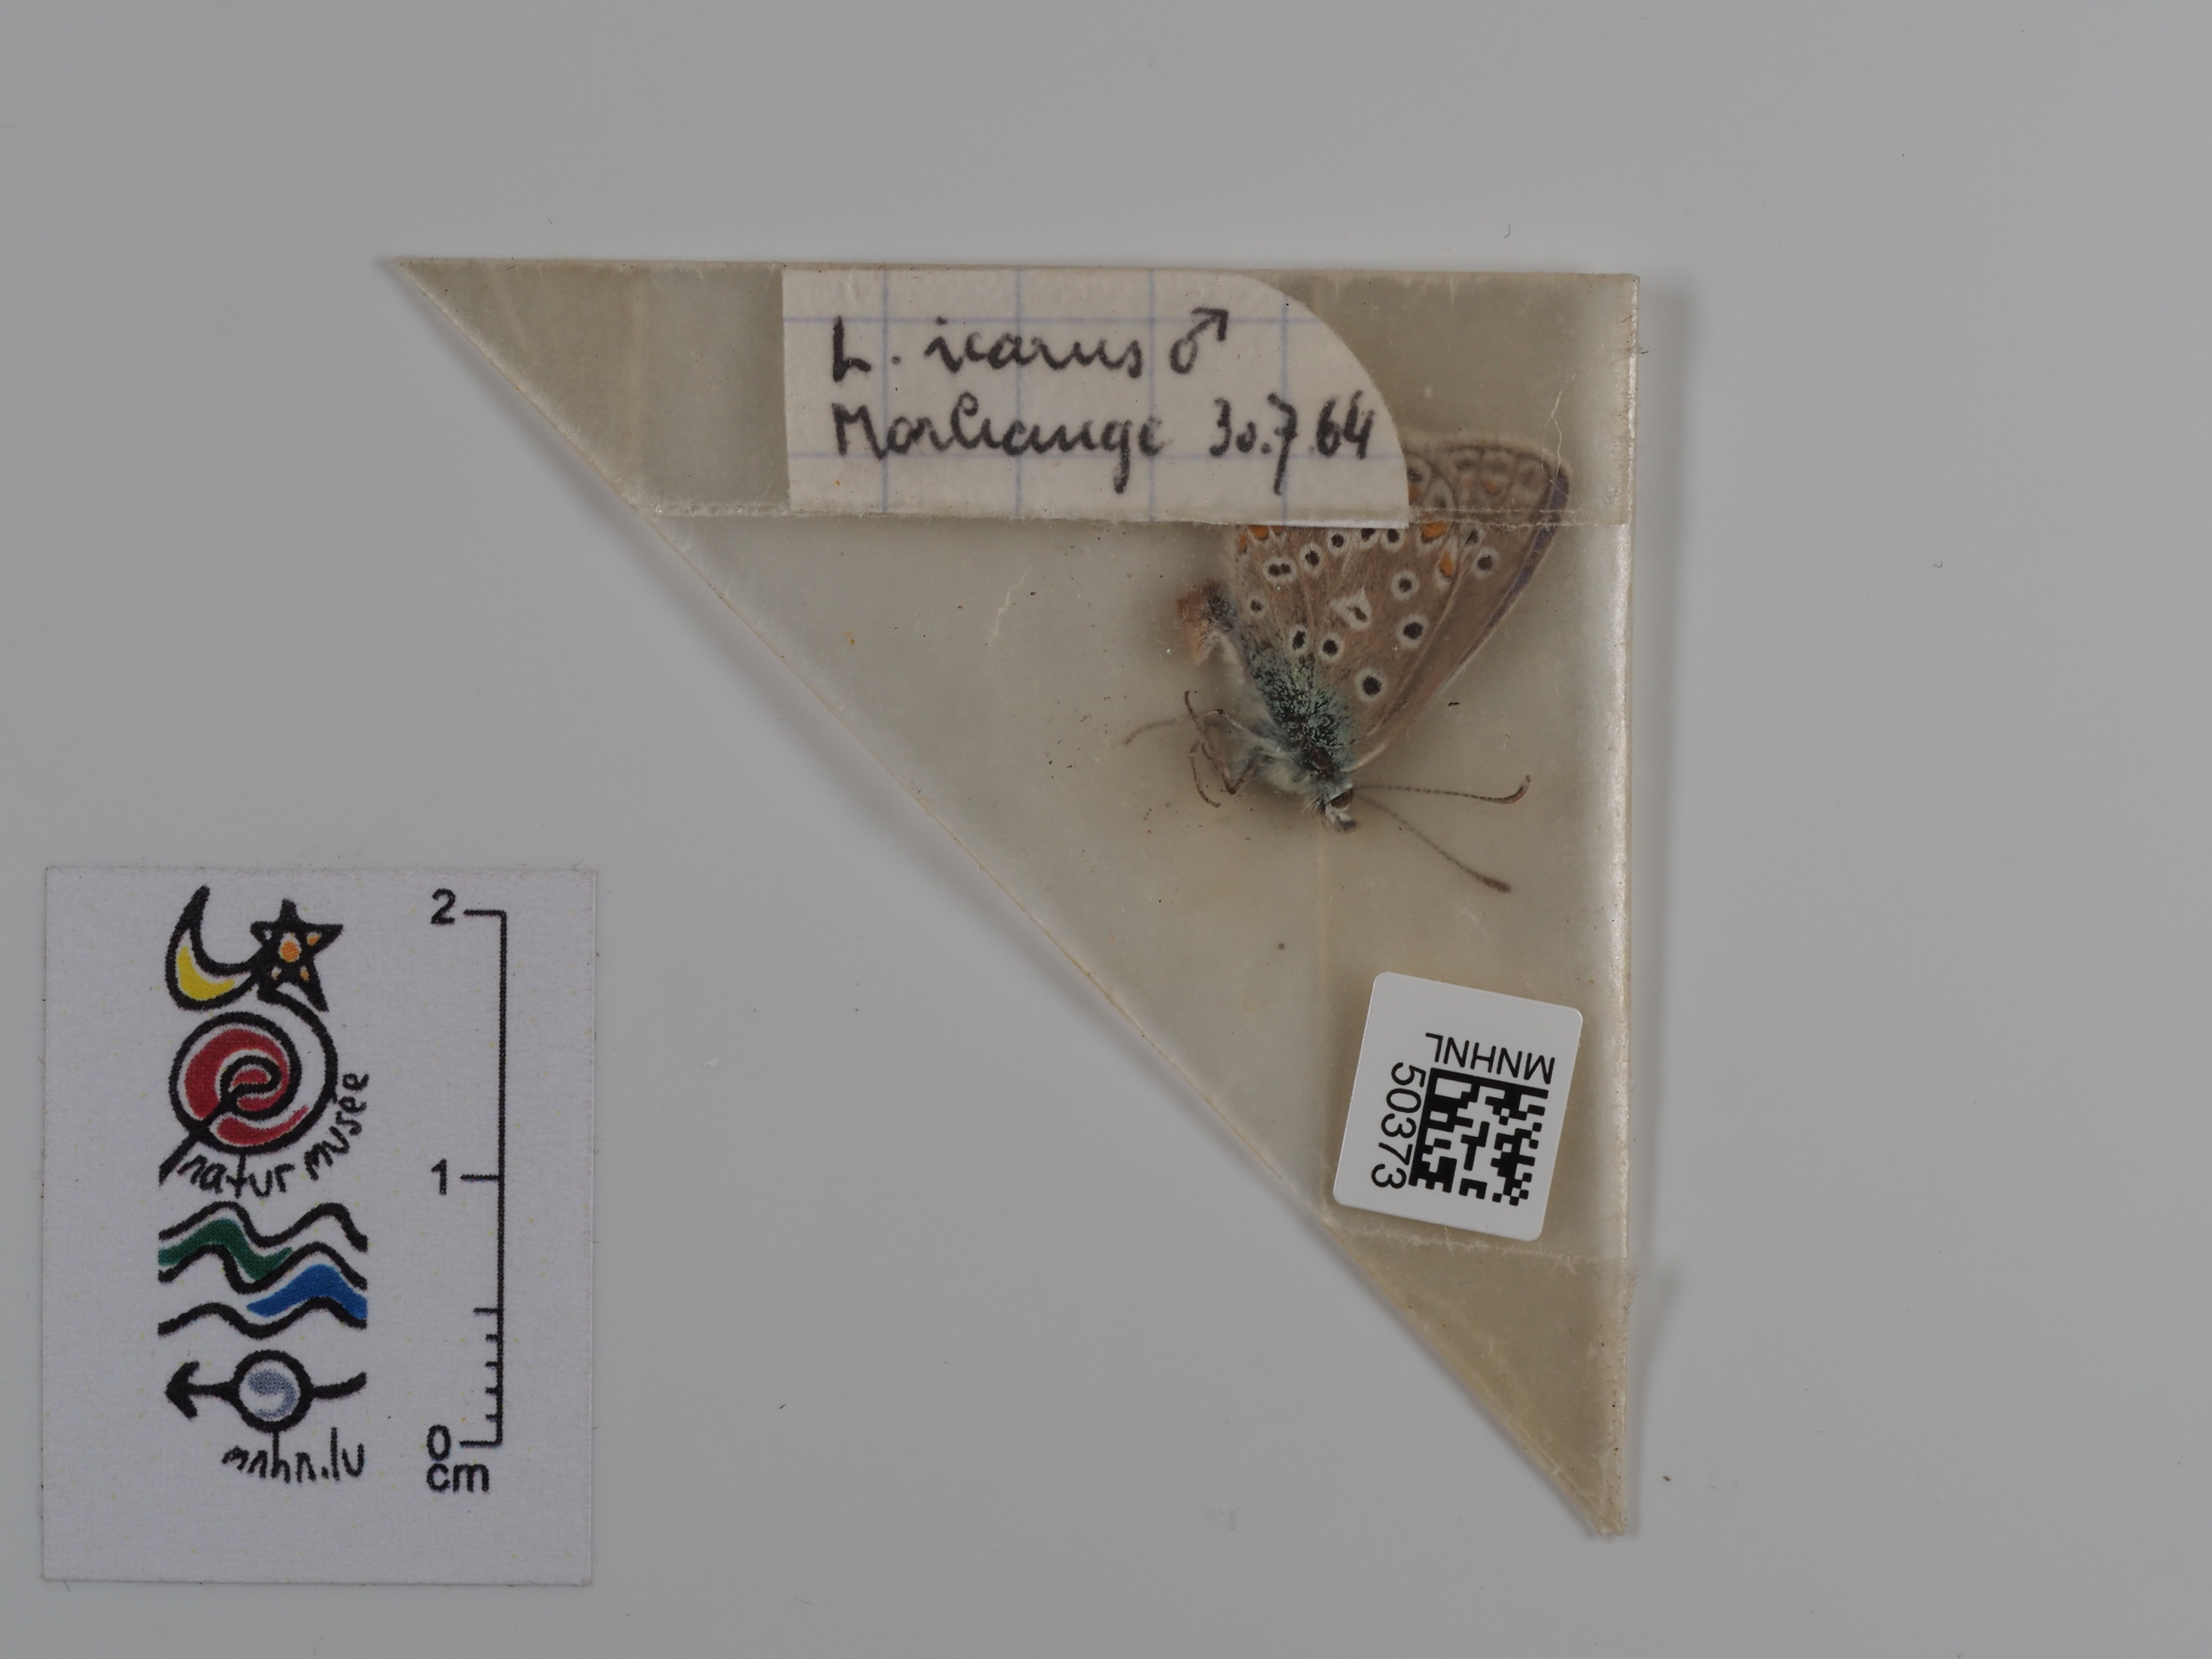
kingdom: Animalia
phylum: Arthropoda
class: Insecta
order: Lepidoptera
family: Lycaenidae
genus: Polyommatus
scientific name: Polyommatus icarus
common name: Common blue
